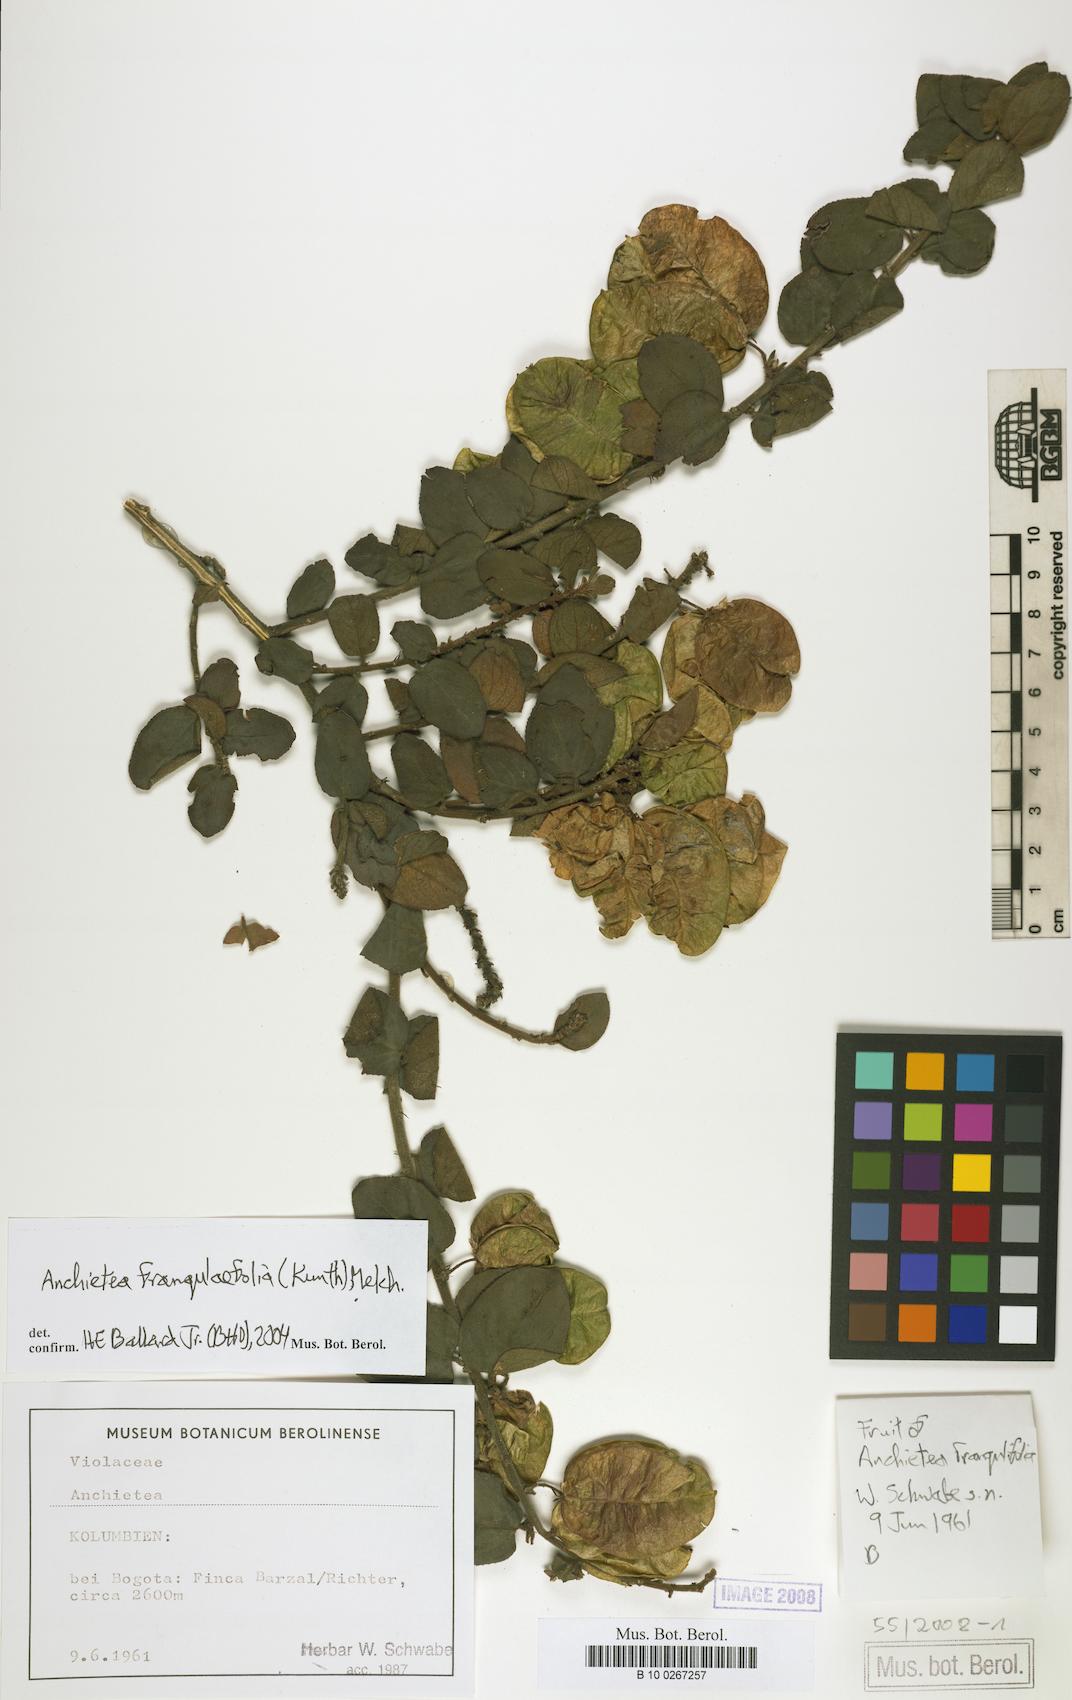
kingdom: Plantae
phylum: Tracheophyta
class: Magnoliopsida
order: Malpighiales
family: Violaceae
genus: Anchietea
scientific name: Anchietea frangulifolia
